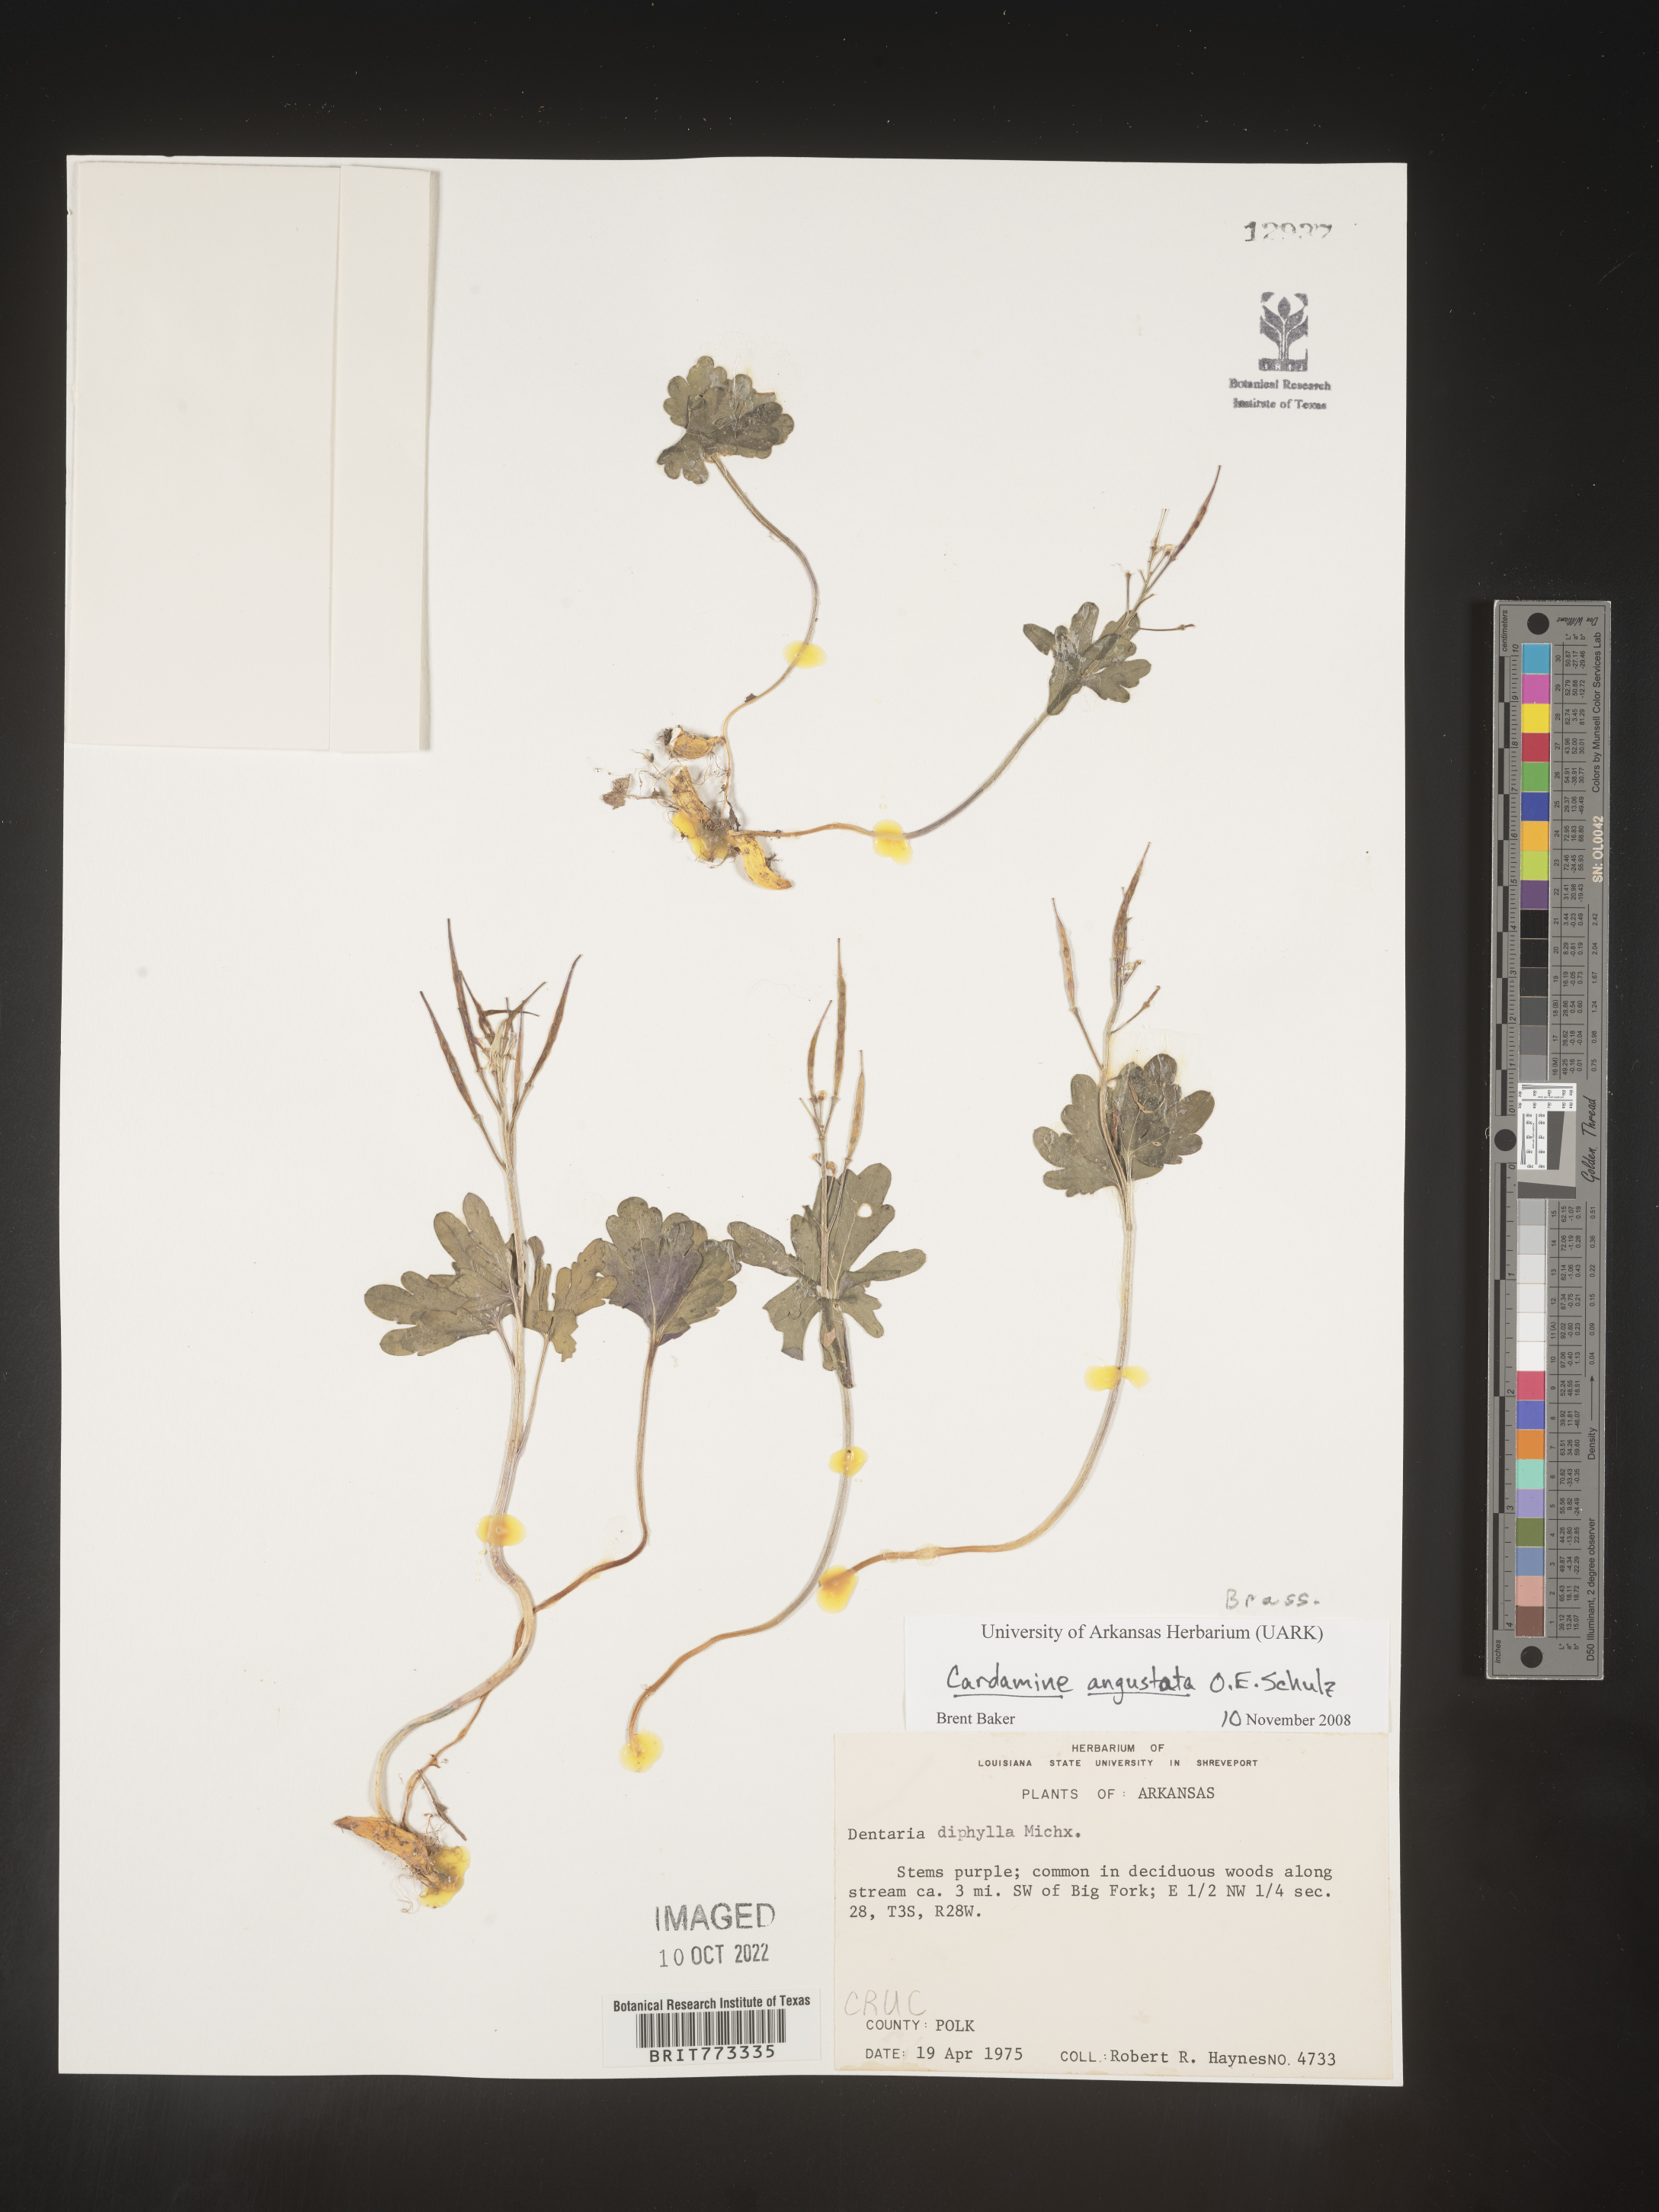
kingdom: Plantae
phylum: Tracheophyta
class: Magnoliopsida
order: Brassicales
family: Brassicaceae
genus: Cardamine
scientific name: Cardamine
